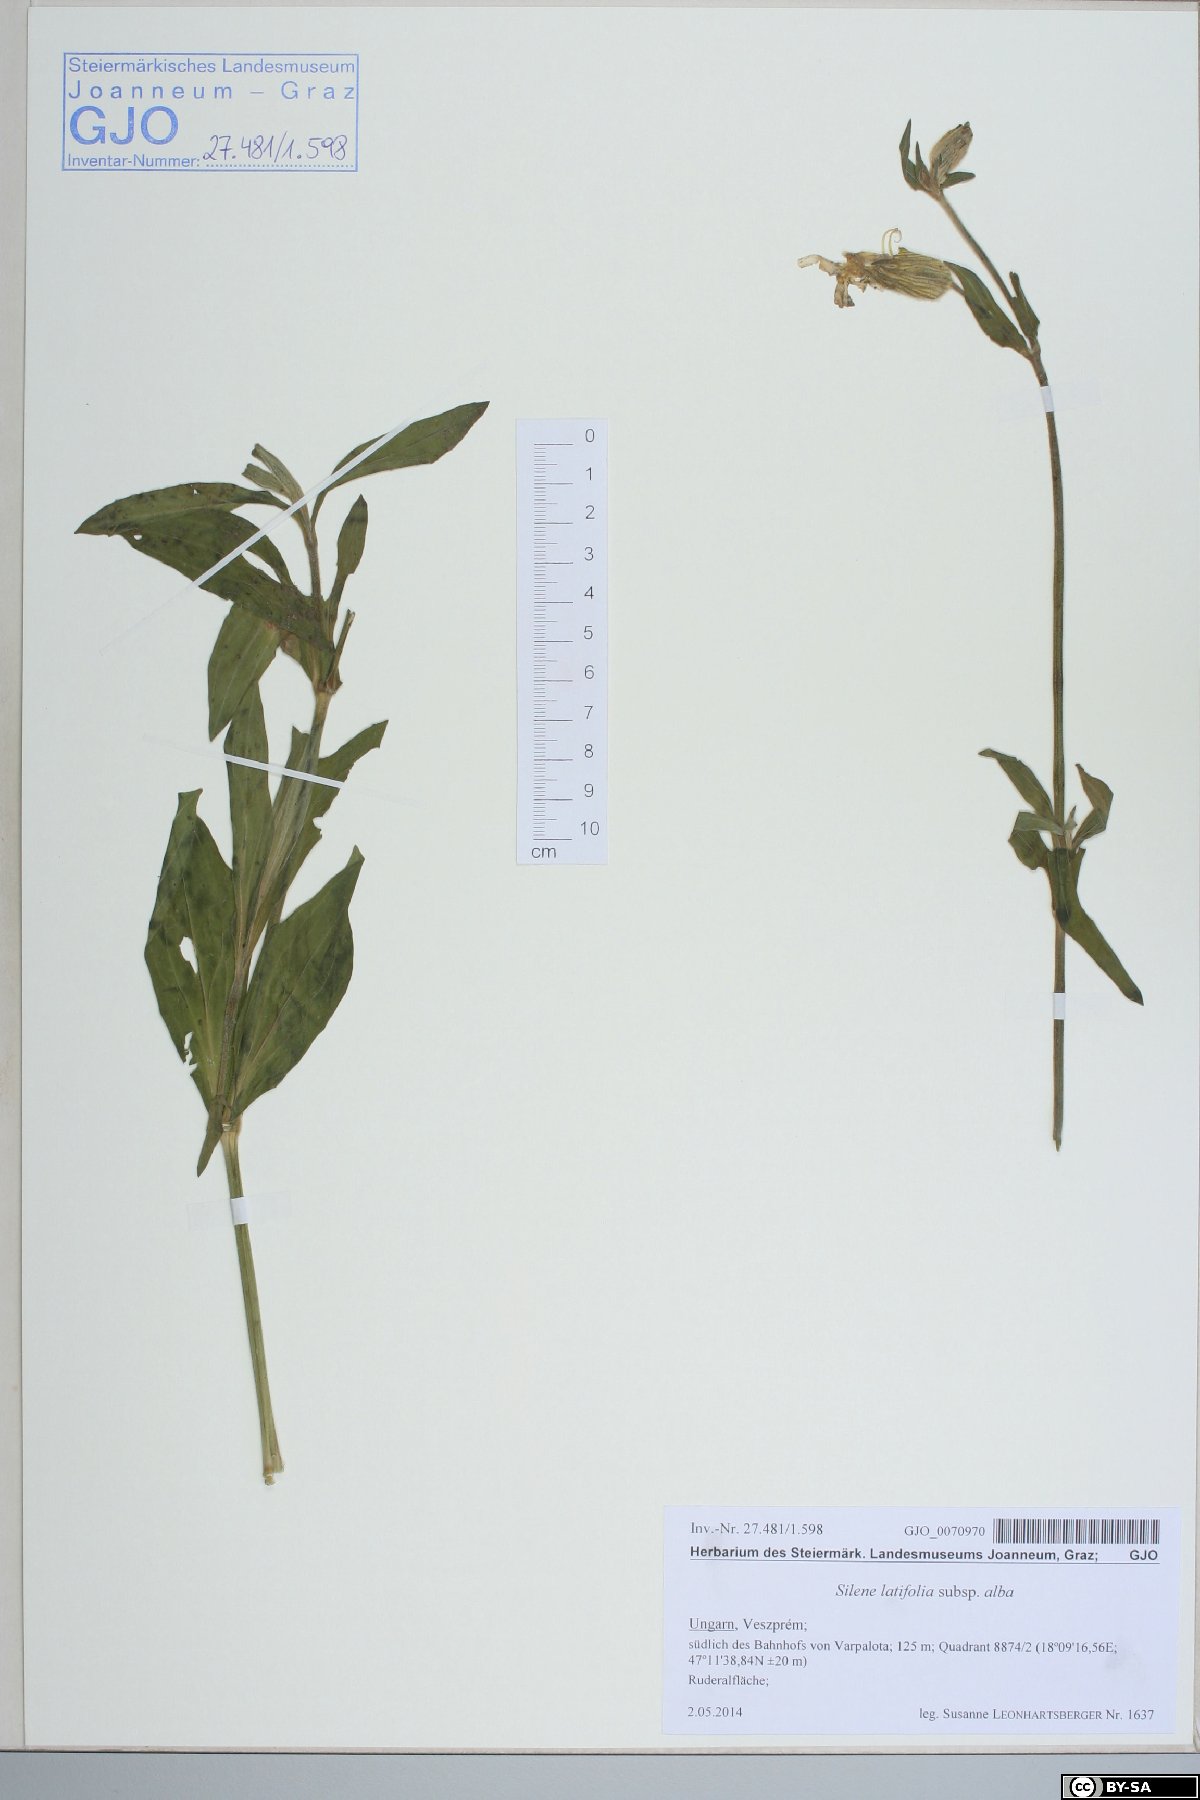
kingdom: Plantae
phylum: Tracheophyta
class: Magnoliopsida
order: Caryophyllales
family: Caryophyllaceae
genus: Silene
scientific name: Silene latifolia
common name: White campion
